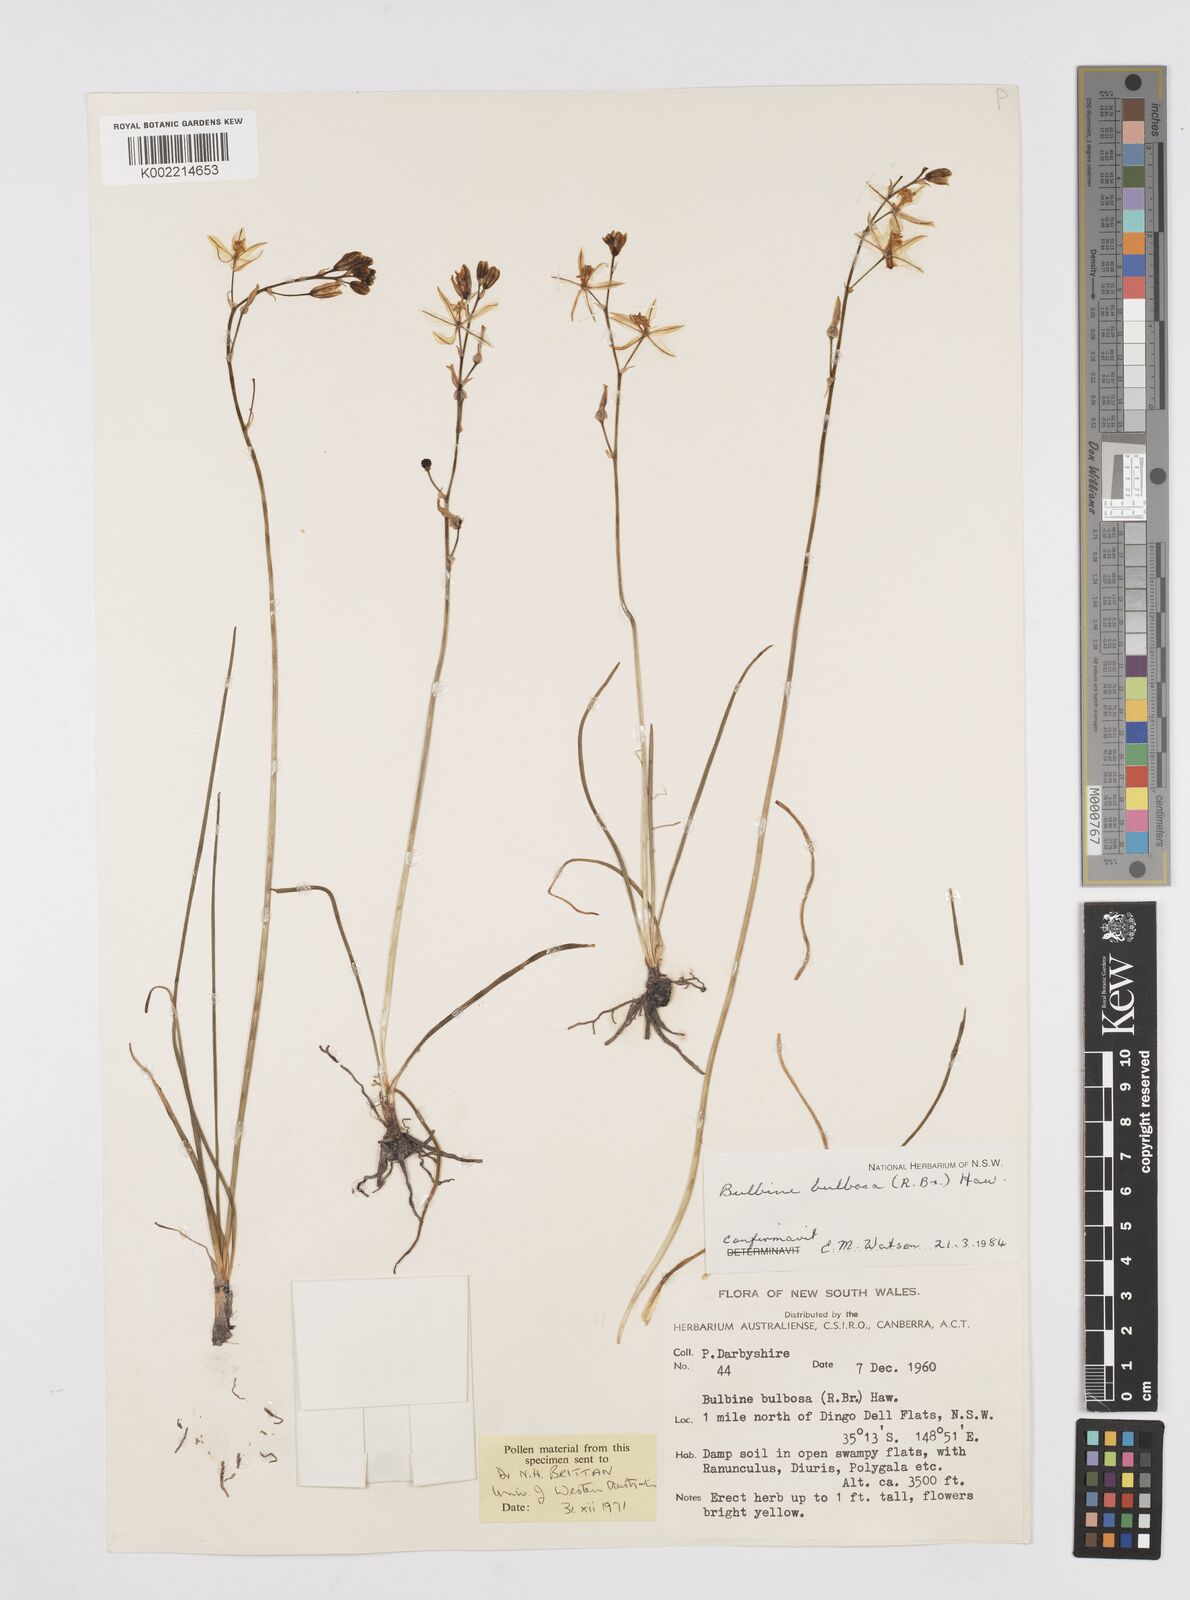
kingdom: Plantae
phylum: Tracheophyta
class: Liliopsida
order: Asparagales
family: Asphodelaceae
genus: Bulbine
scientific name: Bulbine bulbosa
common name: Golden-lily
